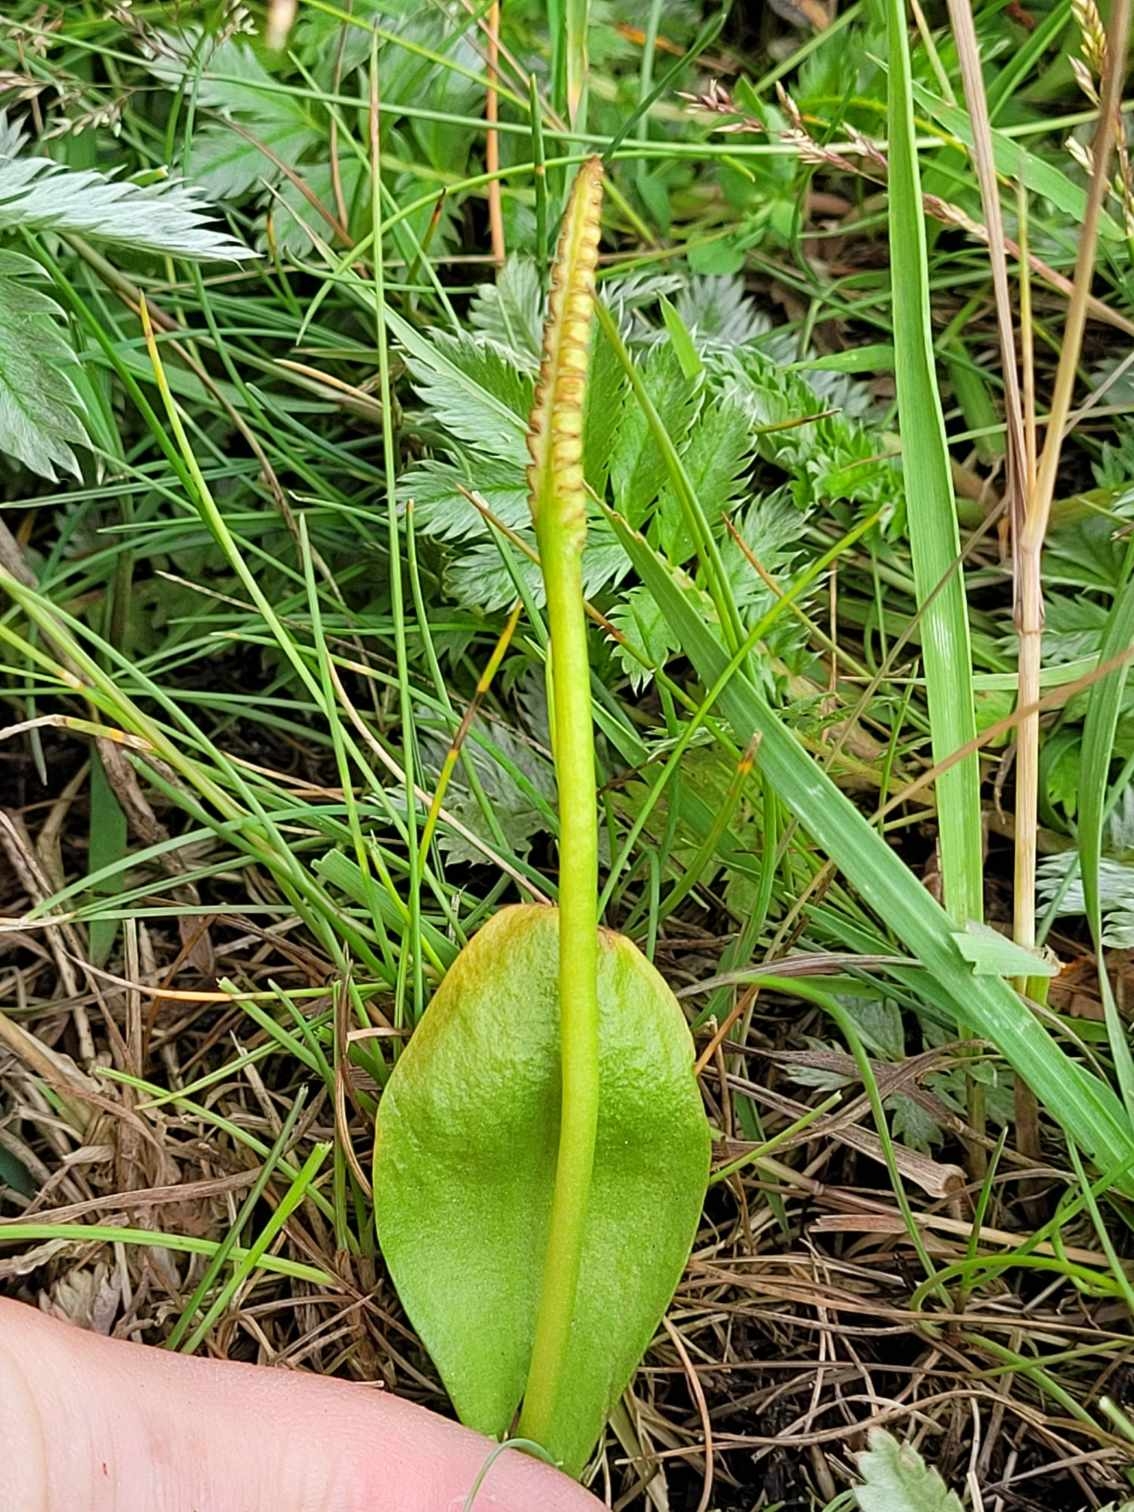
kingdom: Plantae
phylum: Tracheophyta
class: Polypodiopsida
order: Ophioglossales
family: Ophioglossaceae
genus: Ophioglossum
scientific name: Ophioglossum vulgatum
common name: Slangetunge
